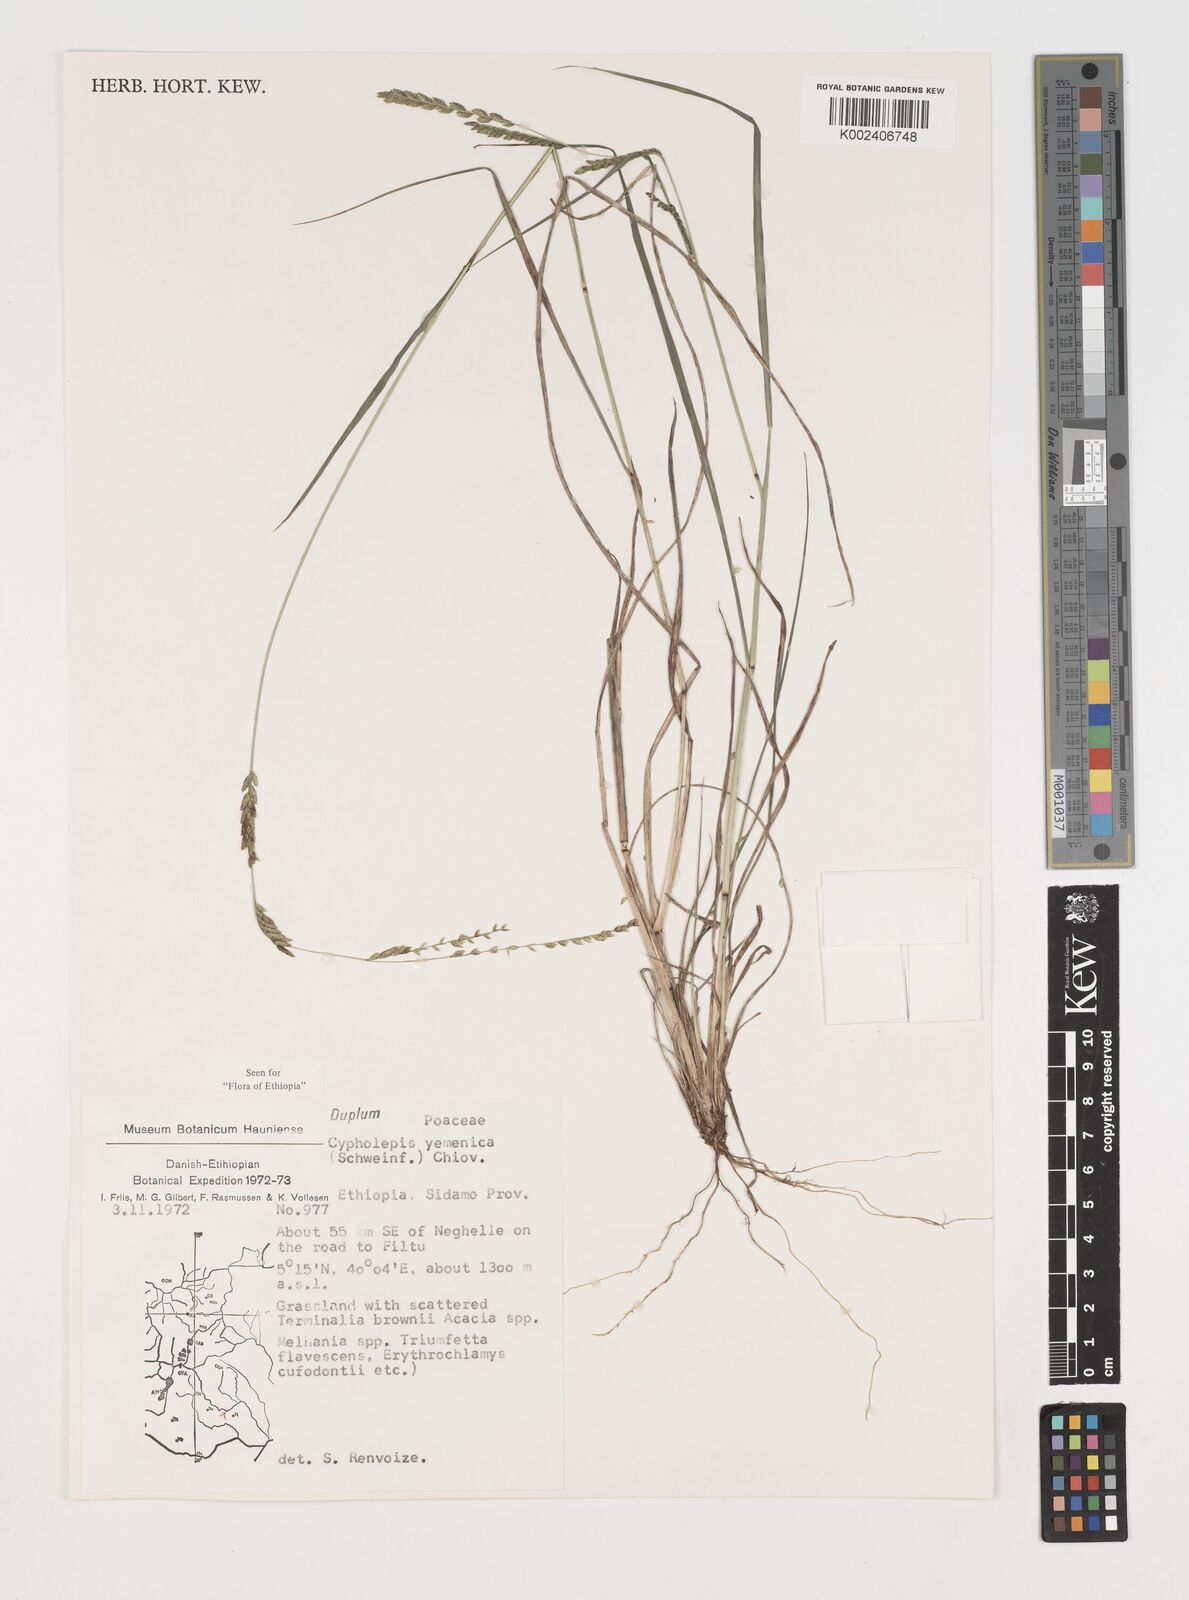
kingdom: Plantae
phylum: Tracheophyta
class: Liliopsida
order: Poales
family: Poaceae
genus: Disakisperma
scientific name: Disakisperma yemenicum
